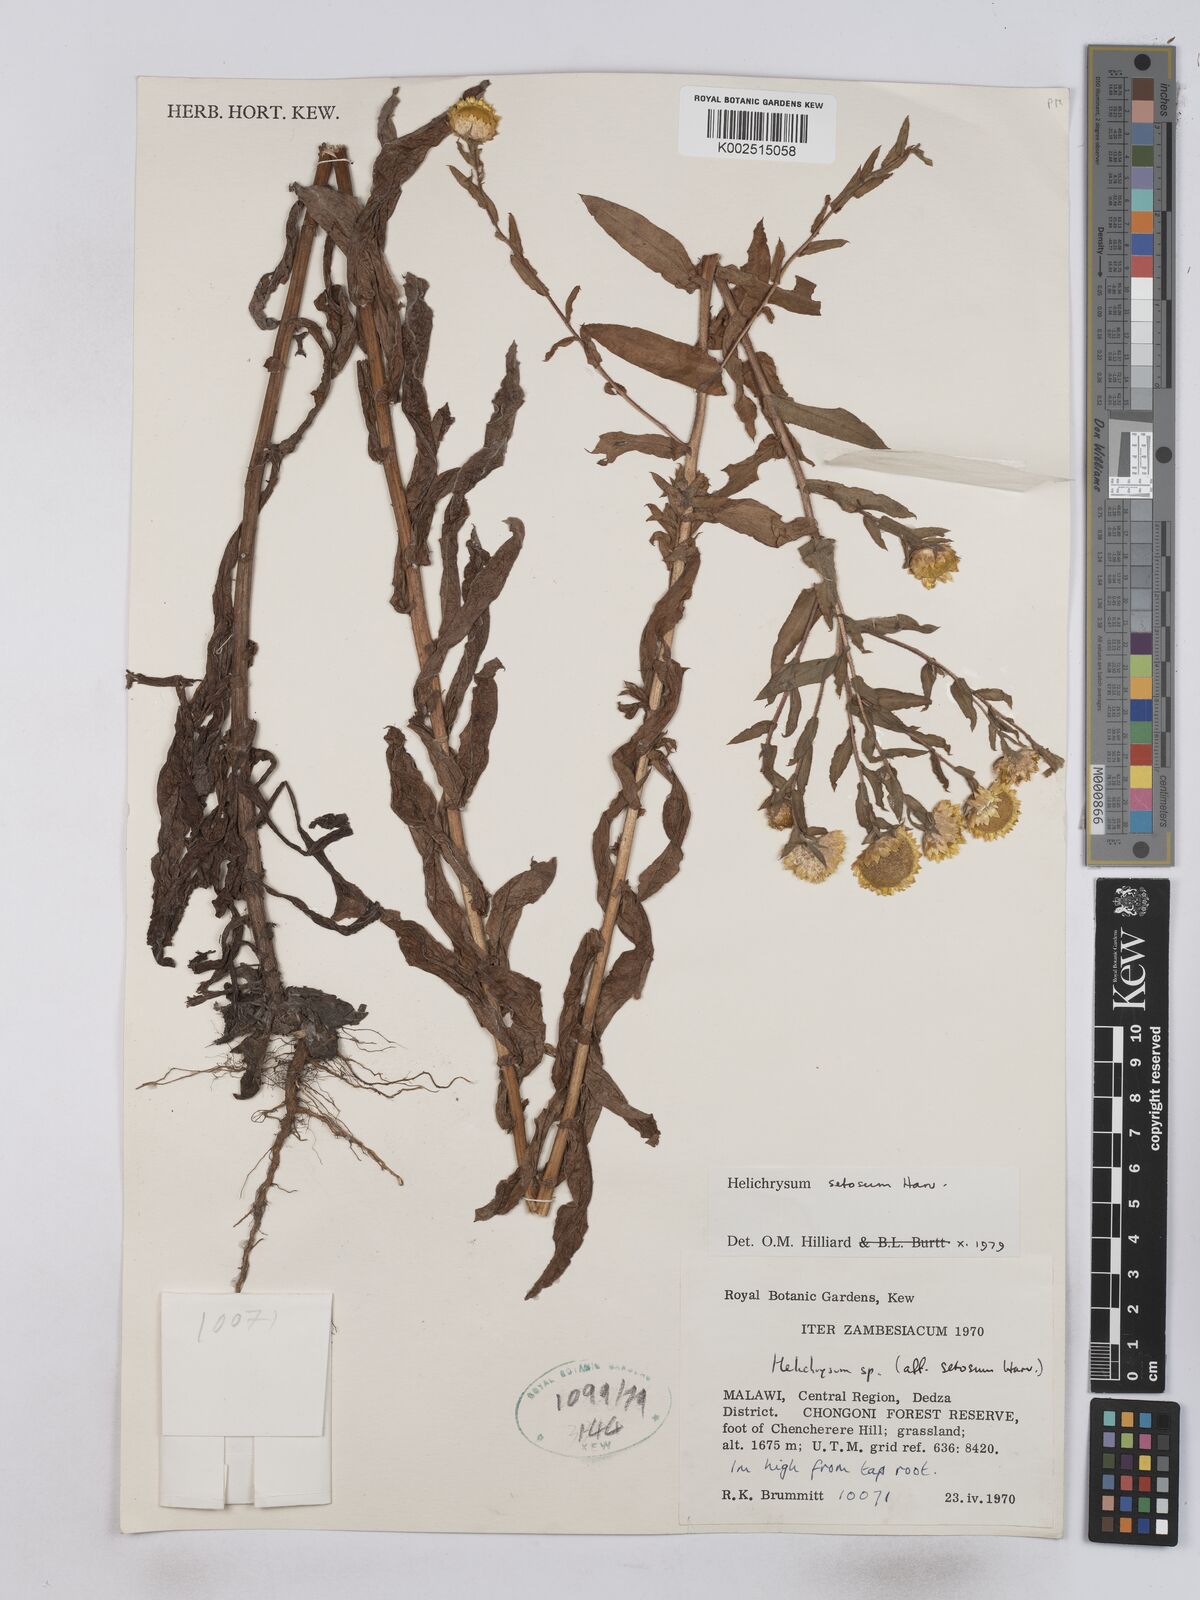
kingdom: Plantae
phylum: Tracheophyta
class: Magnoliopsida
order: Asterales
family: Asteraceae
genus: Helichrysum
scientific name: Helichrysum setosum
